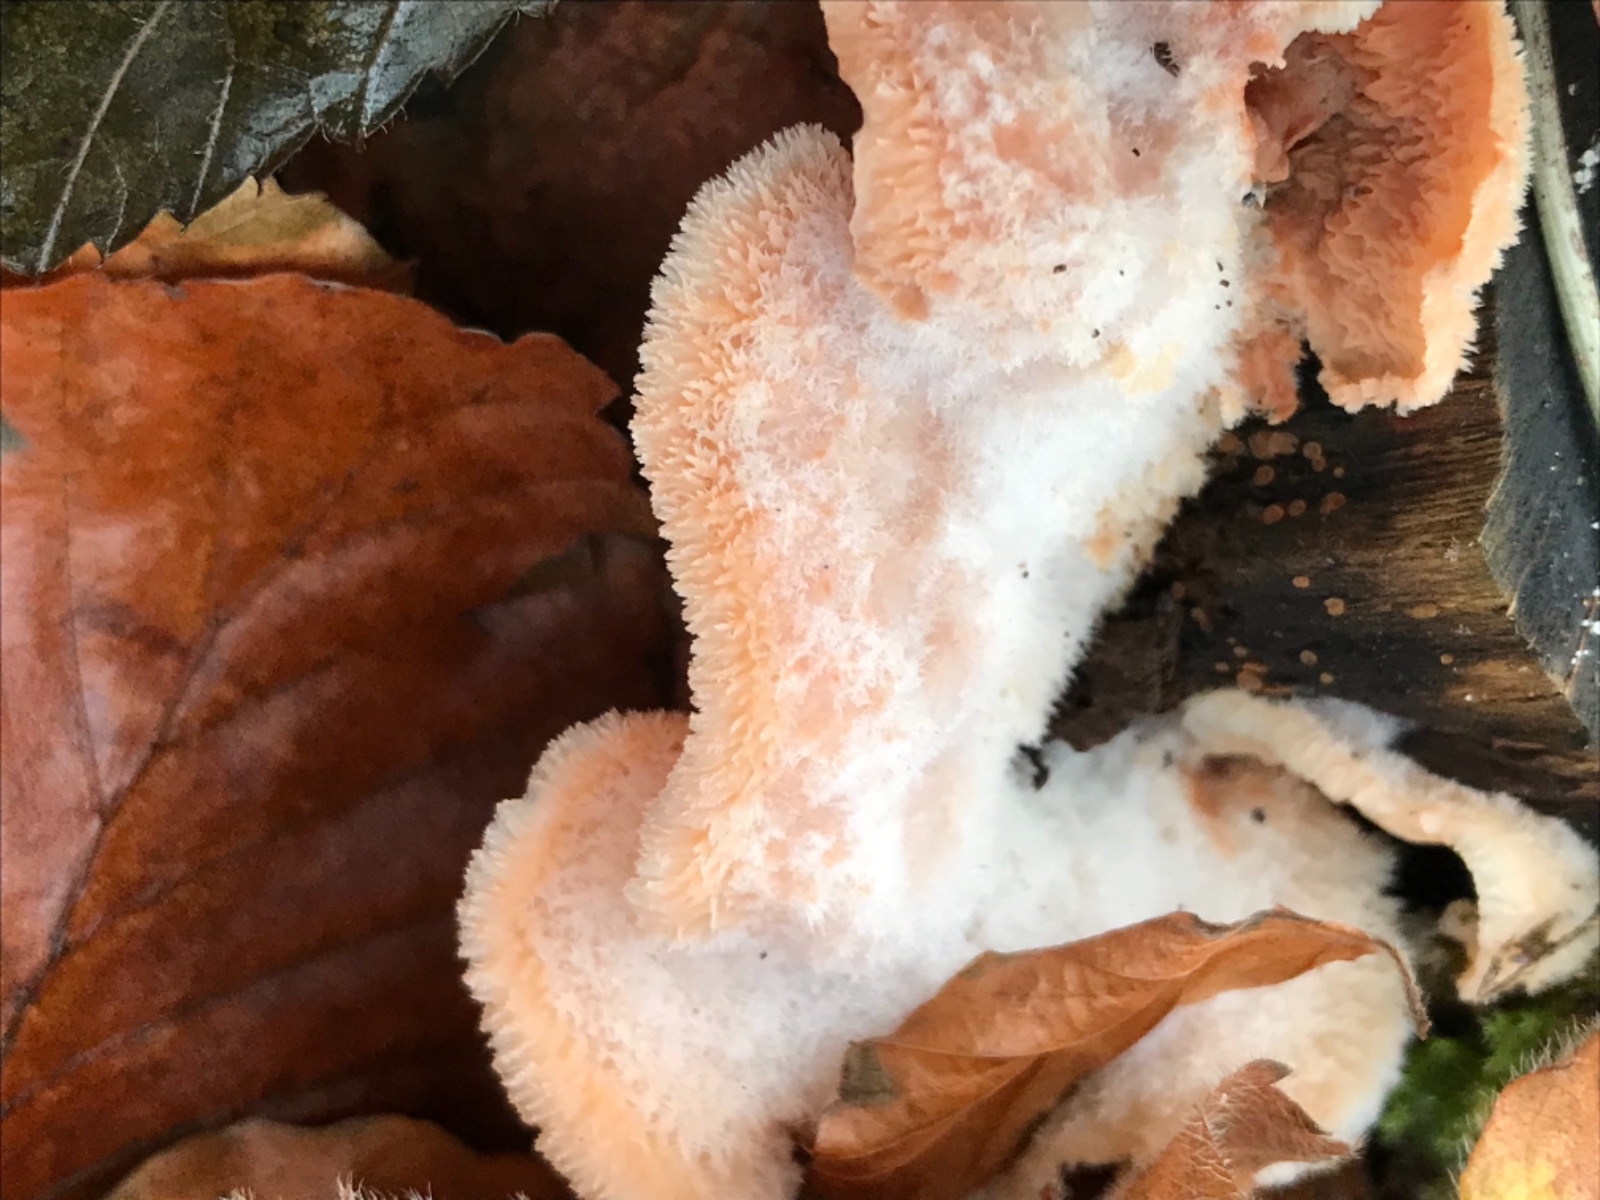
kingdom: Fungi
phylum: Basidiomycota
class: Agaricomycetes
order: Polyporales
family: Meruliaceae
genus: Phlebia
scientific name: Phlebia tremellosa
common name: bævrende åresvamp
